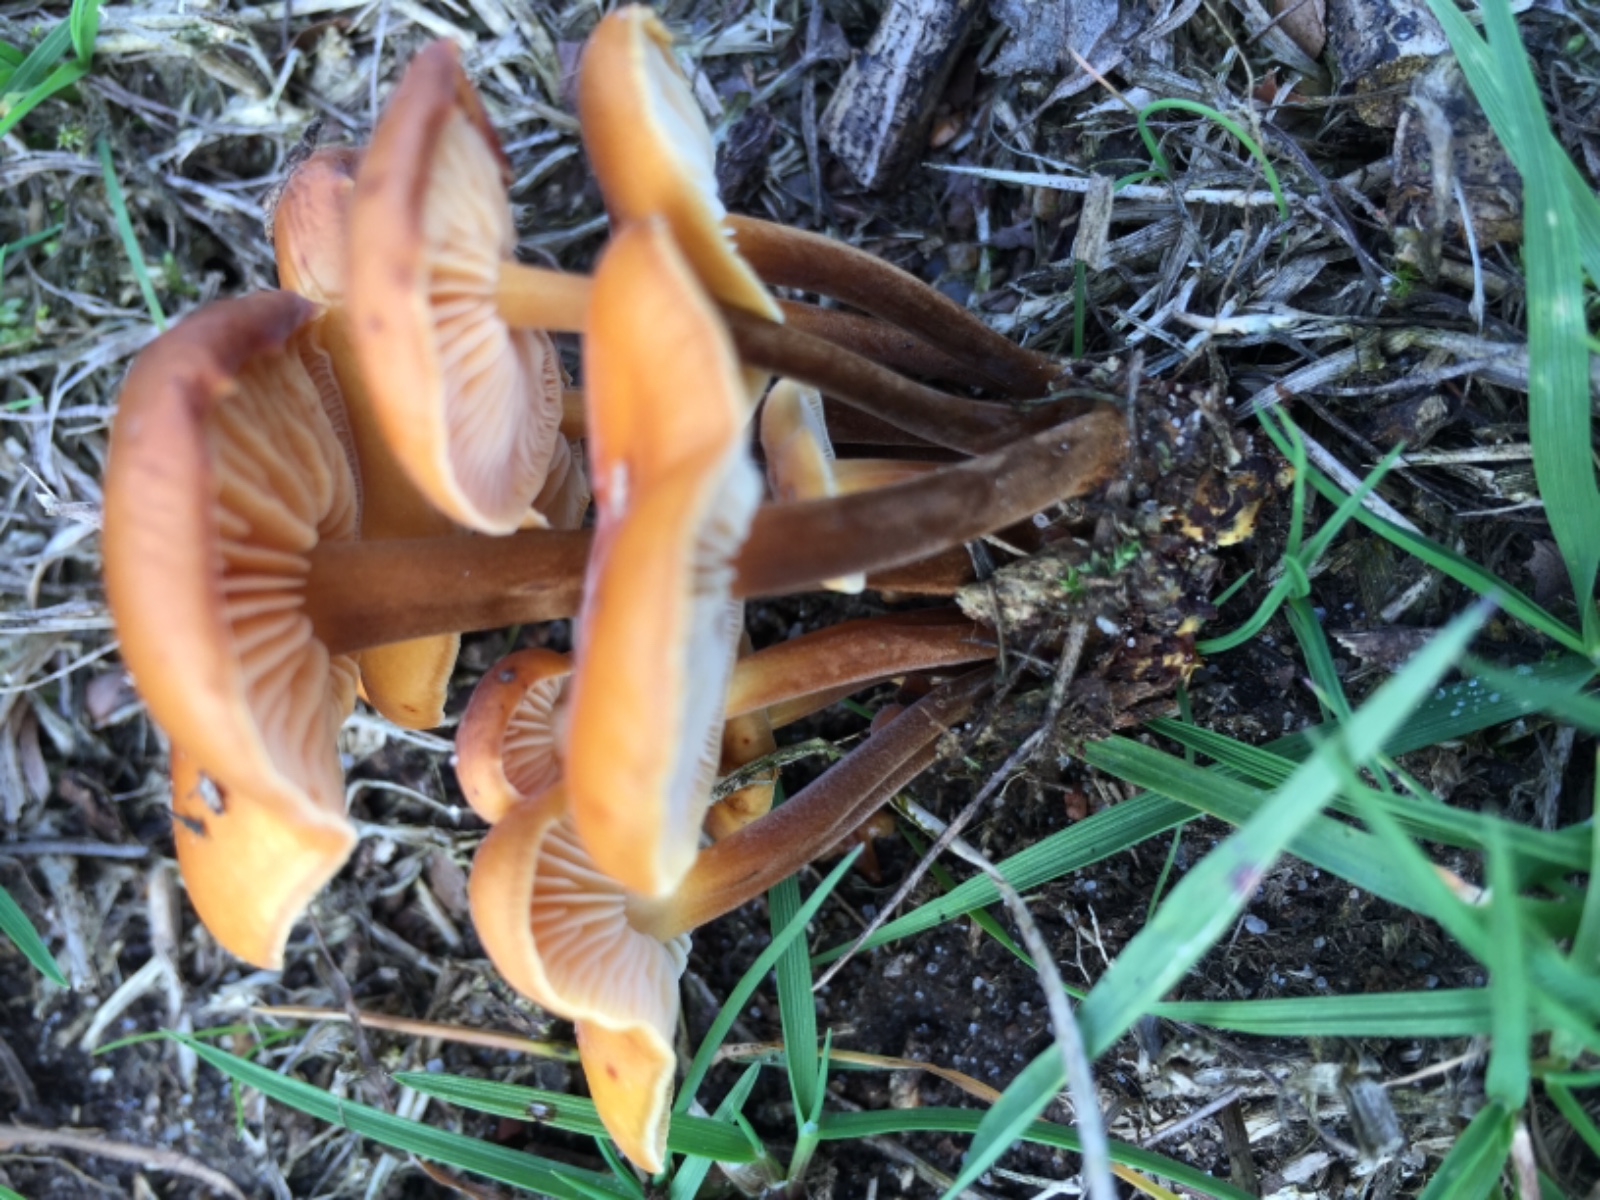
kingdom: Fungi
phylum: Basidiomycota
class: Agaricomycetes
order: Agaricales
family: Physalacriaceae
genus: Flammulina
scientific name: Flammulina
